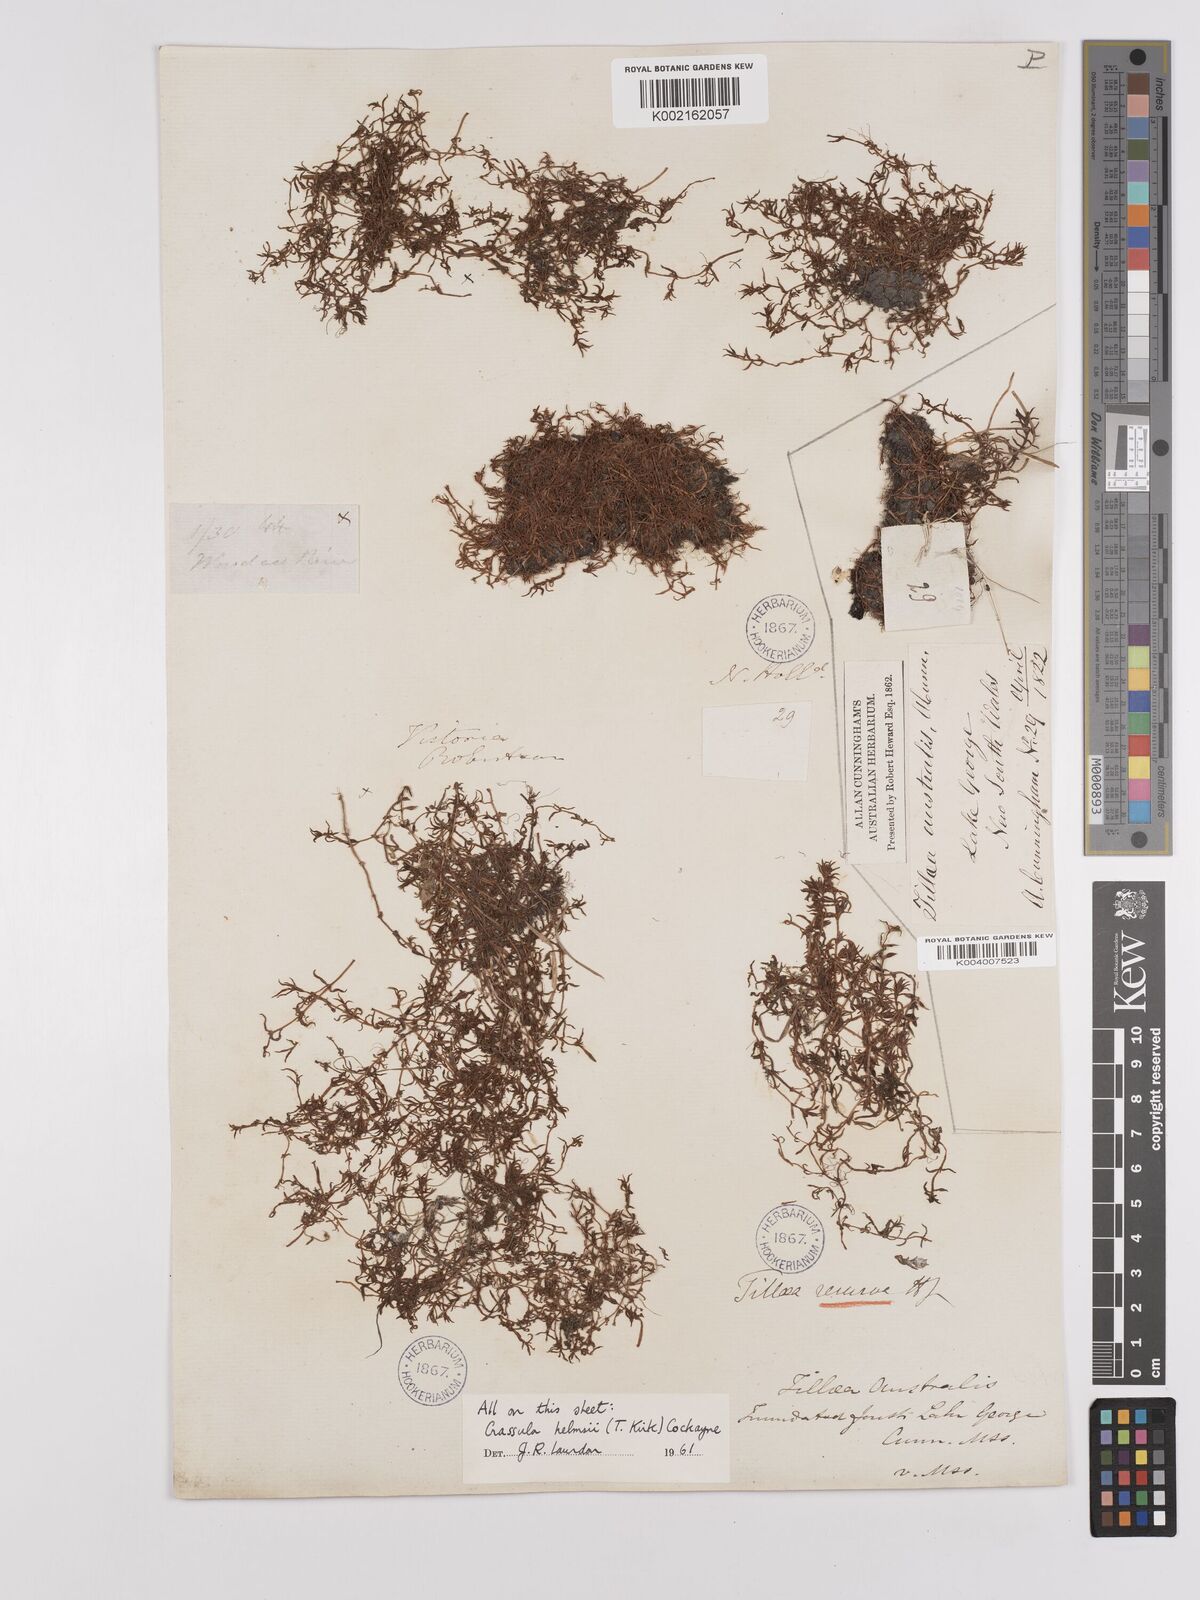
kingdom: Plantae
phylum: Tracheophyta
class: Magnoliopsida
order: Saxifragales
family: Crassulaceae
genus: Crassula
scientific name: Crassula helmsii
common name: New zealand pigmyweed
